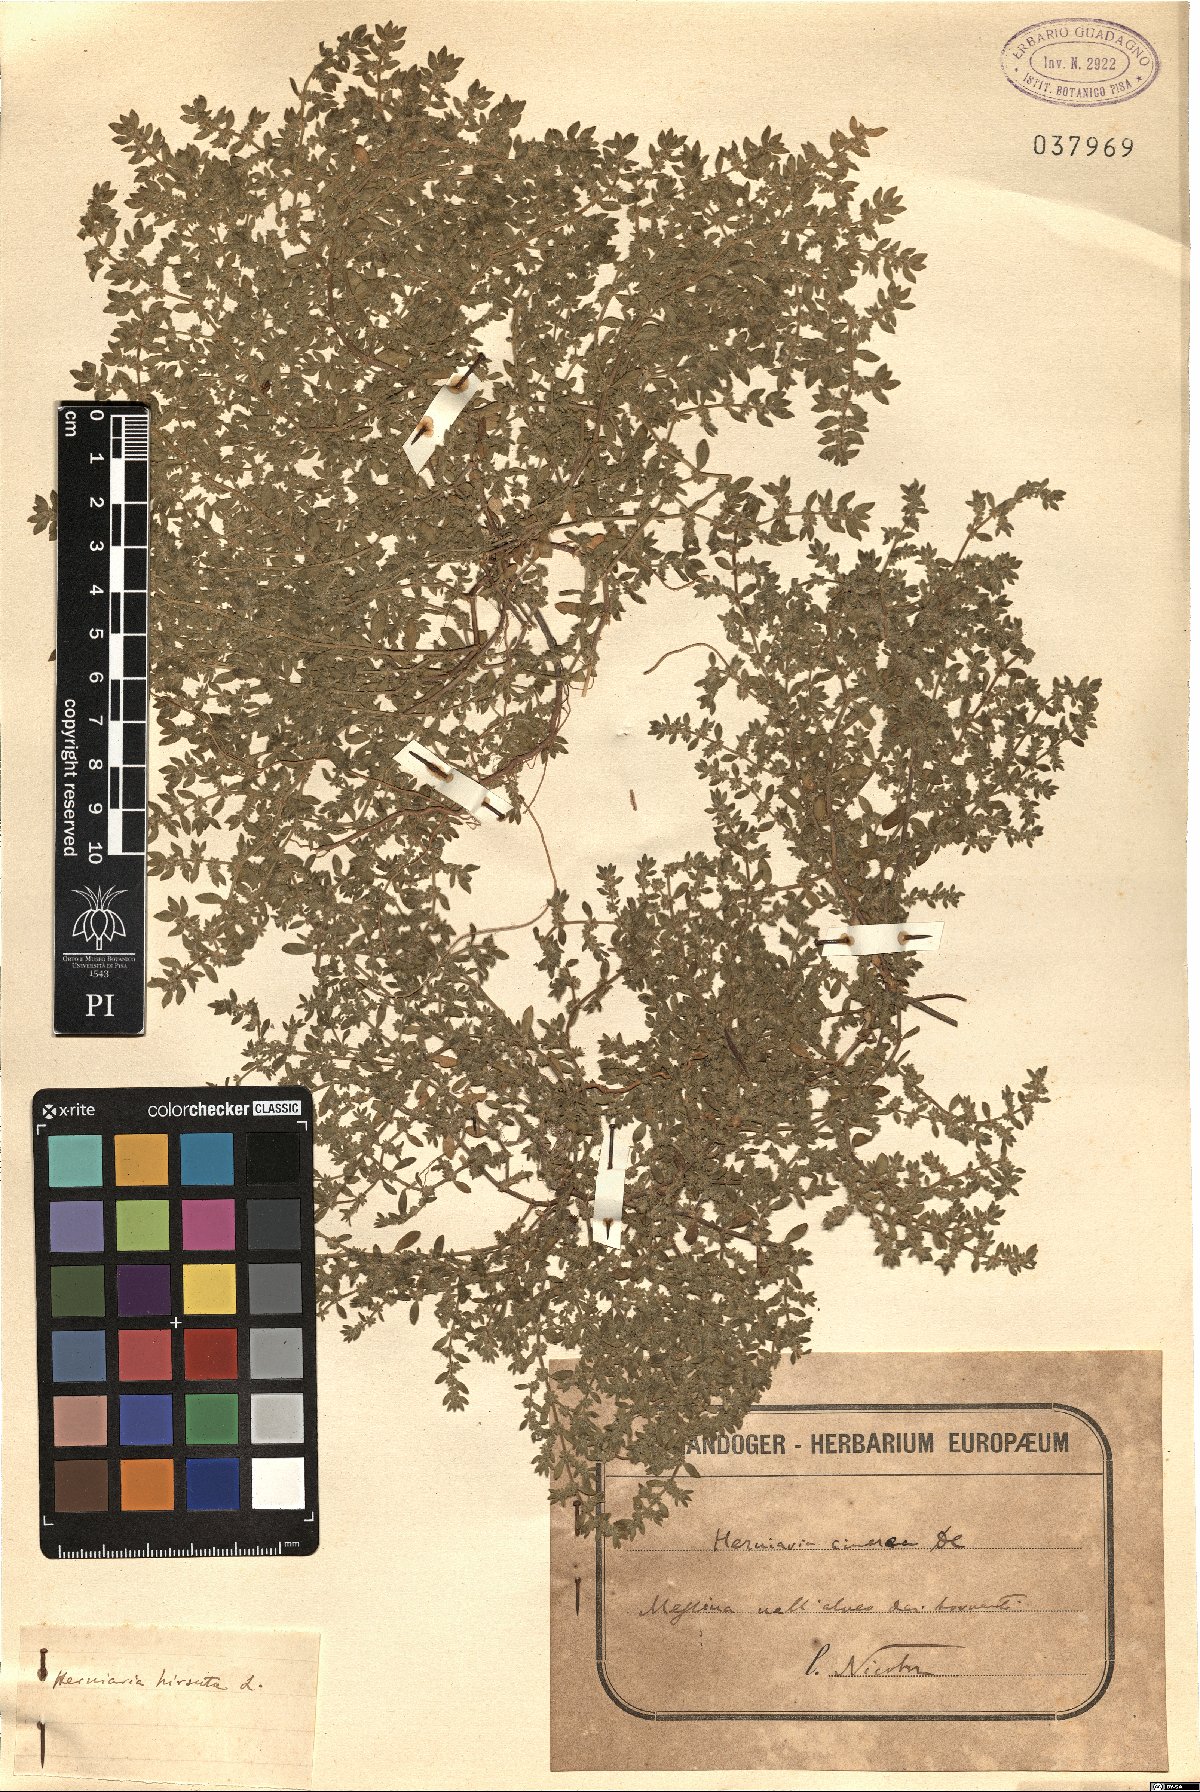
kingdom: Plantae
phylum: Tracheophyta
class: Magnoliopsida
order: Caryophyllales
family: Caryophyllaceae
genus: Herniaria
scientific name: Herniaria hirsuta
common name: Hairy rupturewort
